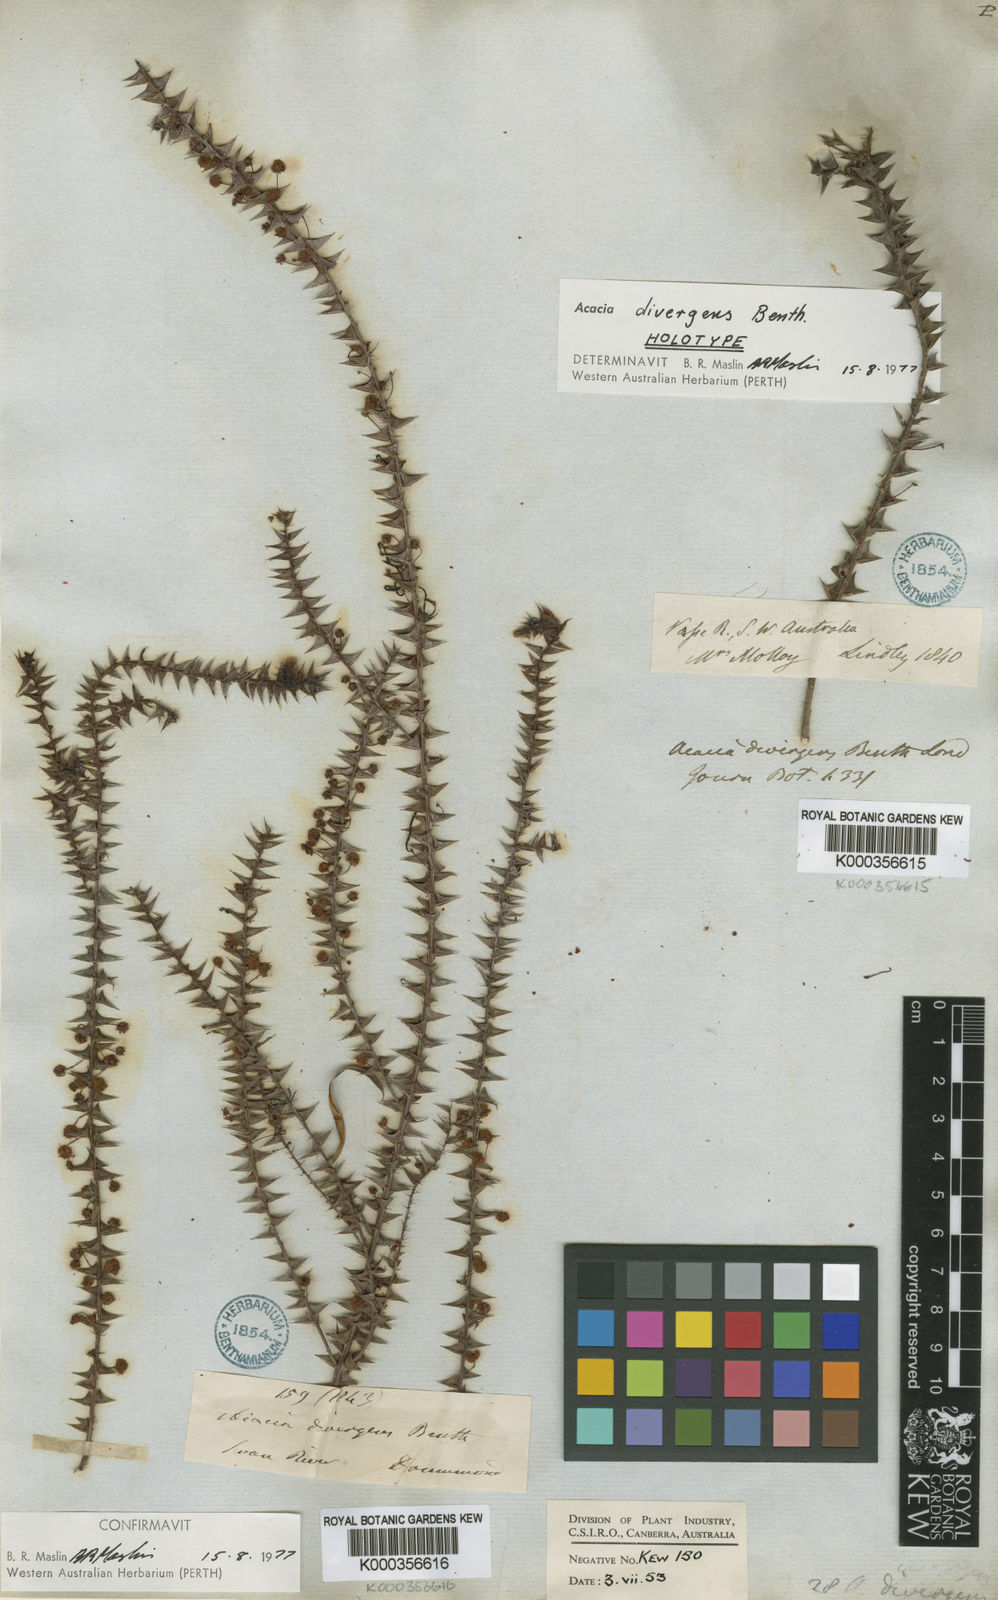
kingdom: Plantae
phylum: Tracheophyta
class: Magnoliopsida
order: Fabales
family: Fabaceae
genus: Acacia
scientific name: Acacia divergens
